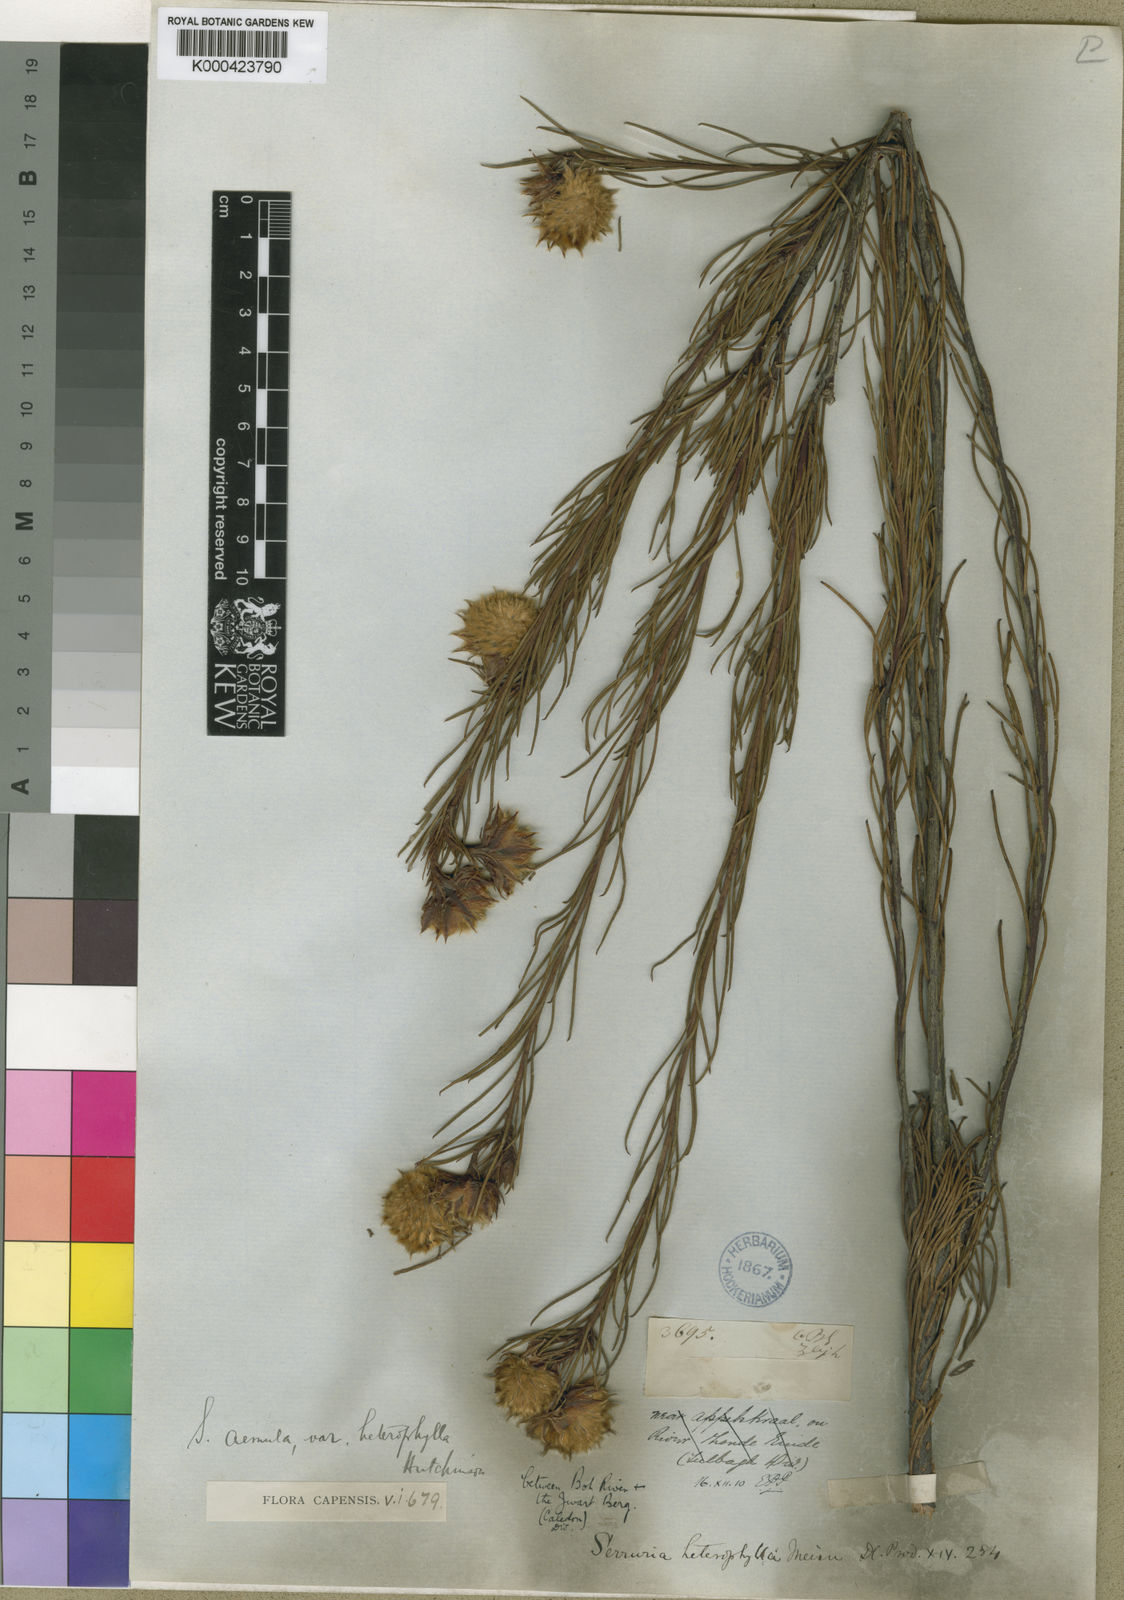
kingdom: Plantae
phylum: Tracheophyta
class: Magnoliopsida
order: Proteales
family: Proteaceae
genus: Serruria
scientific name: Serruria aemula
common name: Strawberry spiderhead
